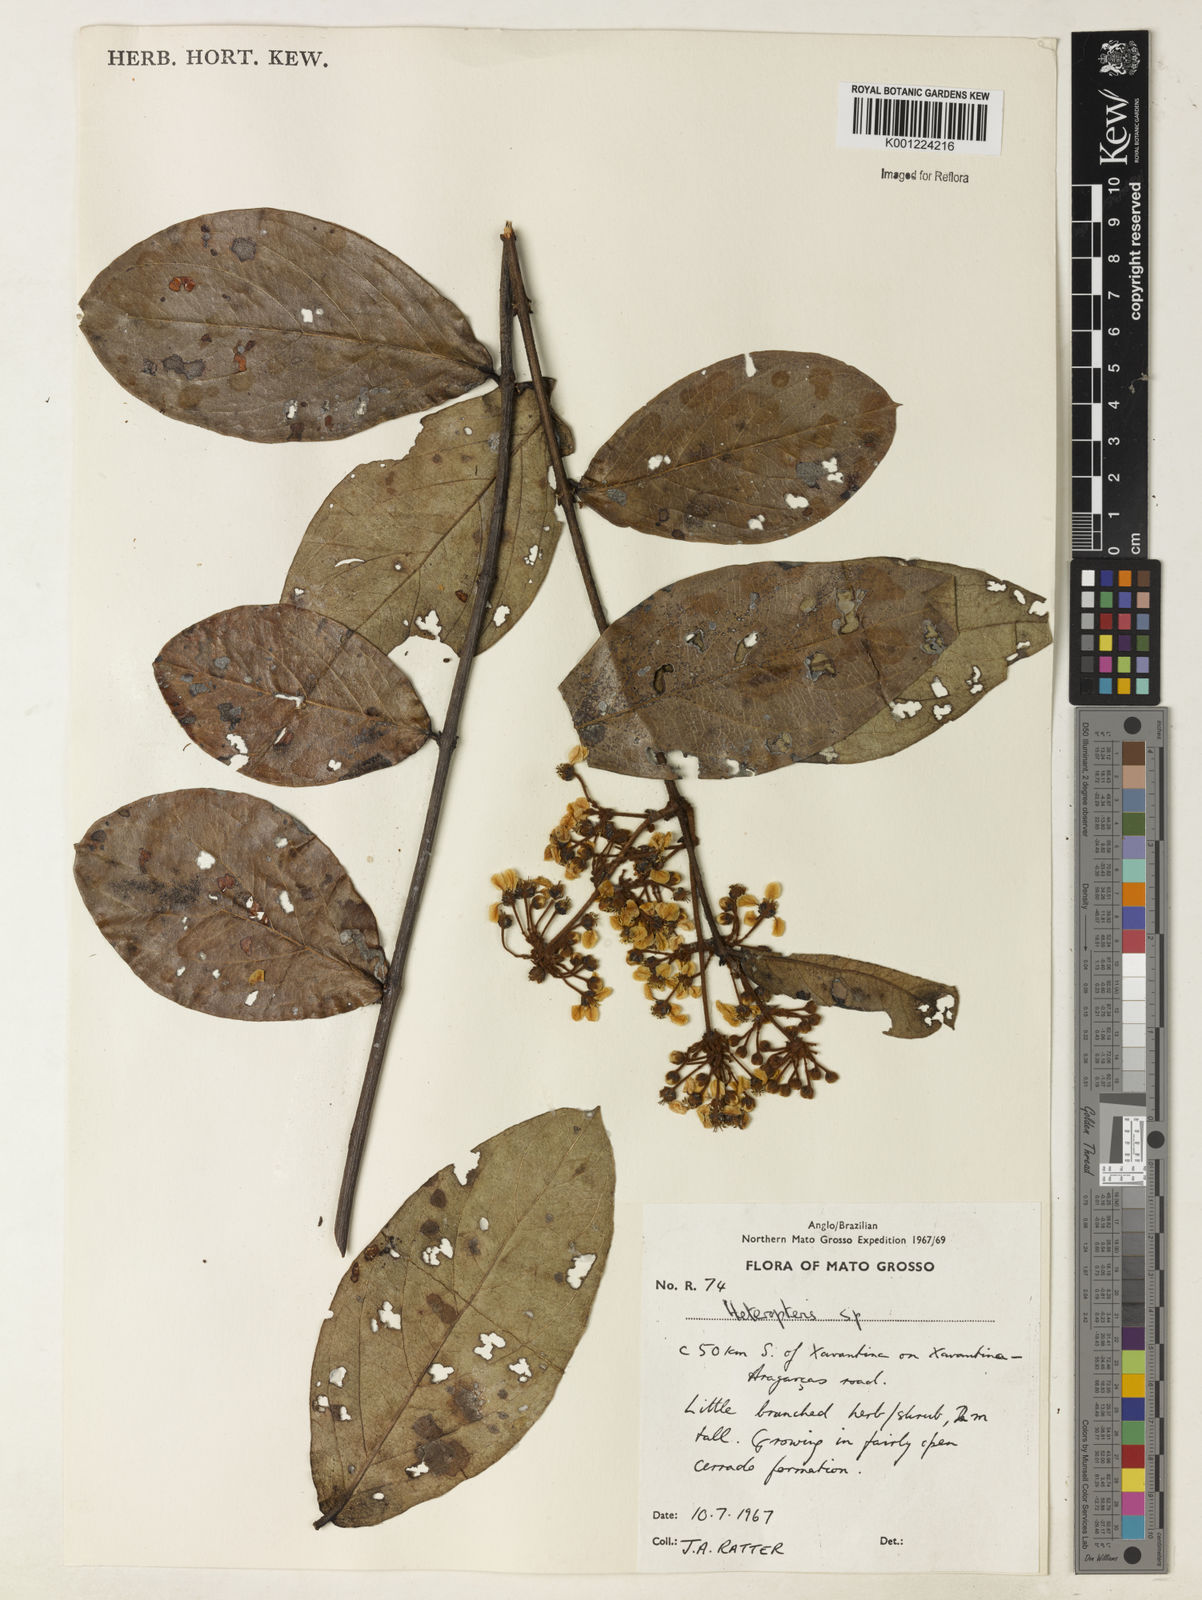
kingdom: Plantae
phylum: Tracheophyta
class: Magnoliopsida
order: Malpighiales
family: Malpighiaceae
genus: Heteropterys
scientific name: Heteropterys tomentosa
